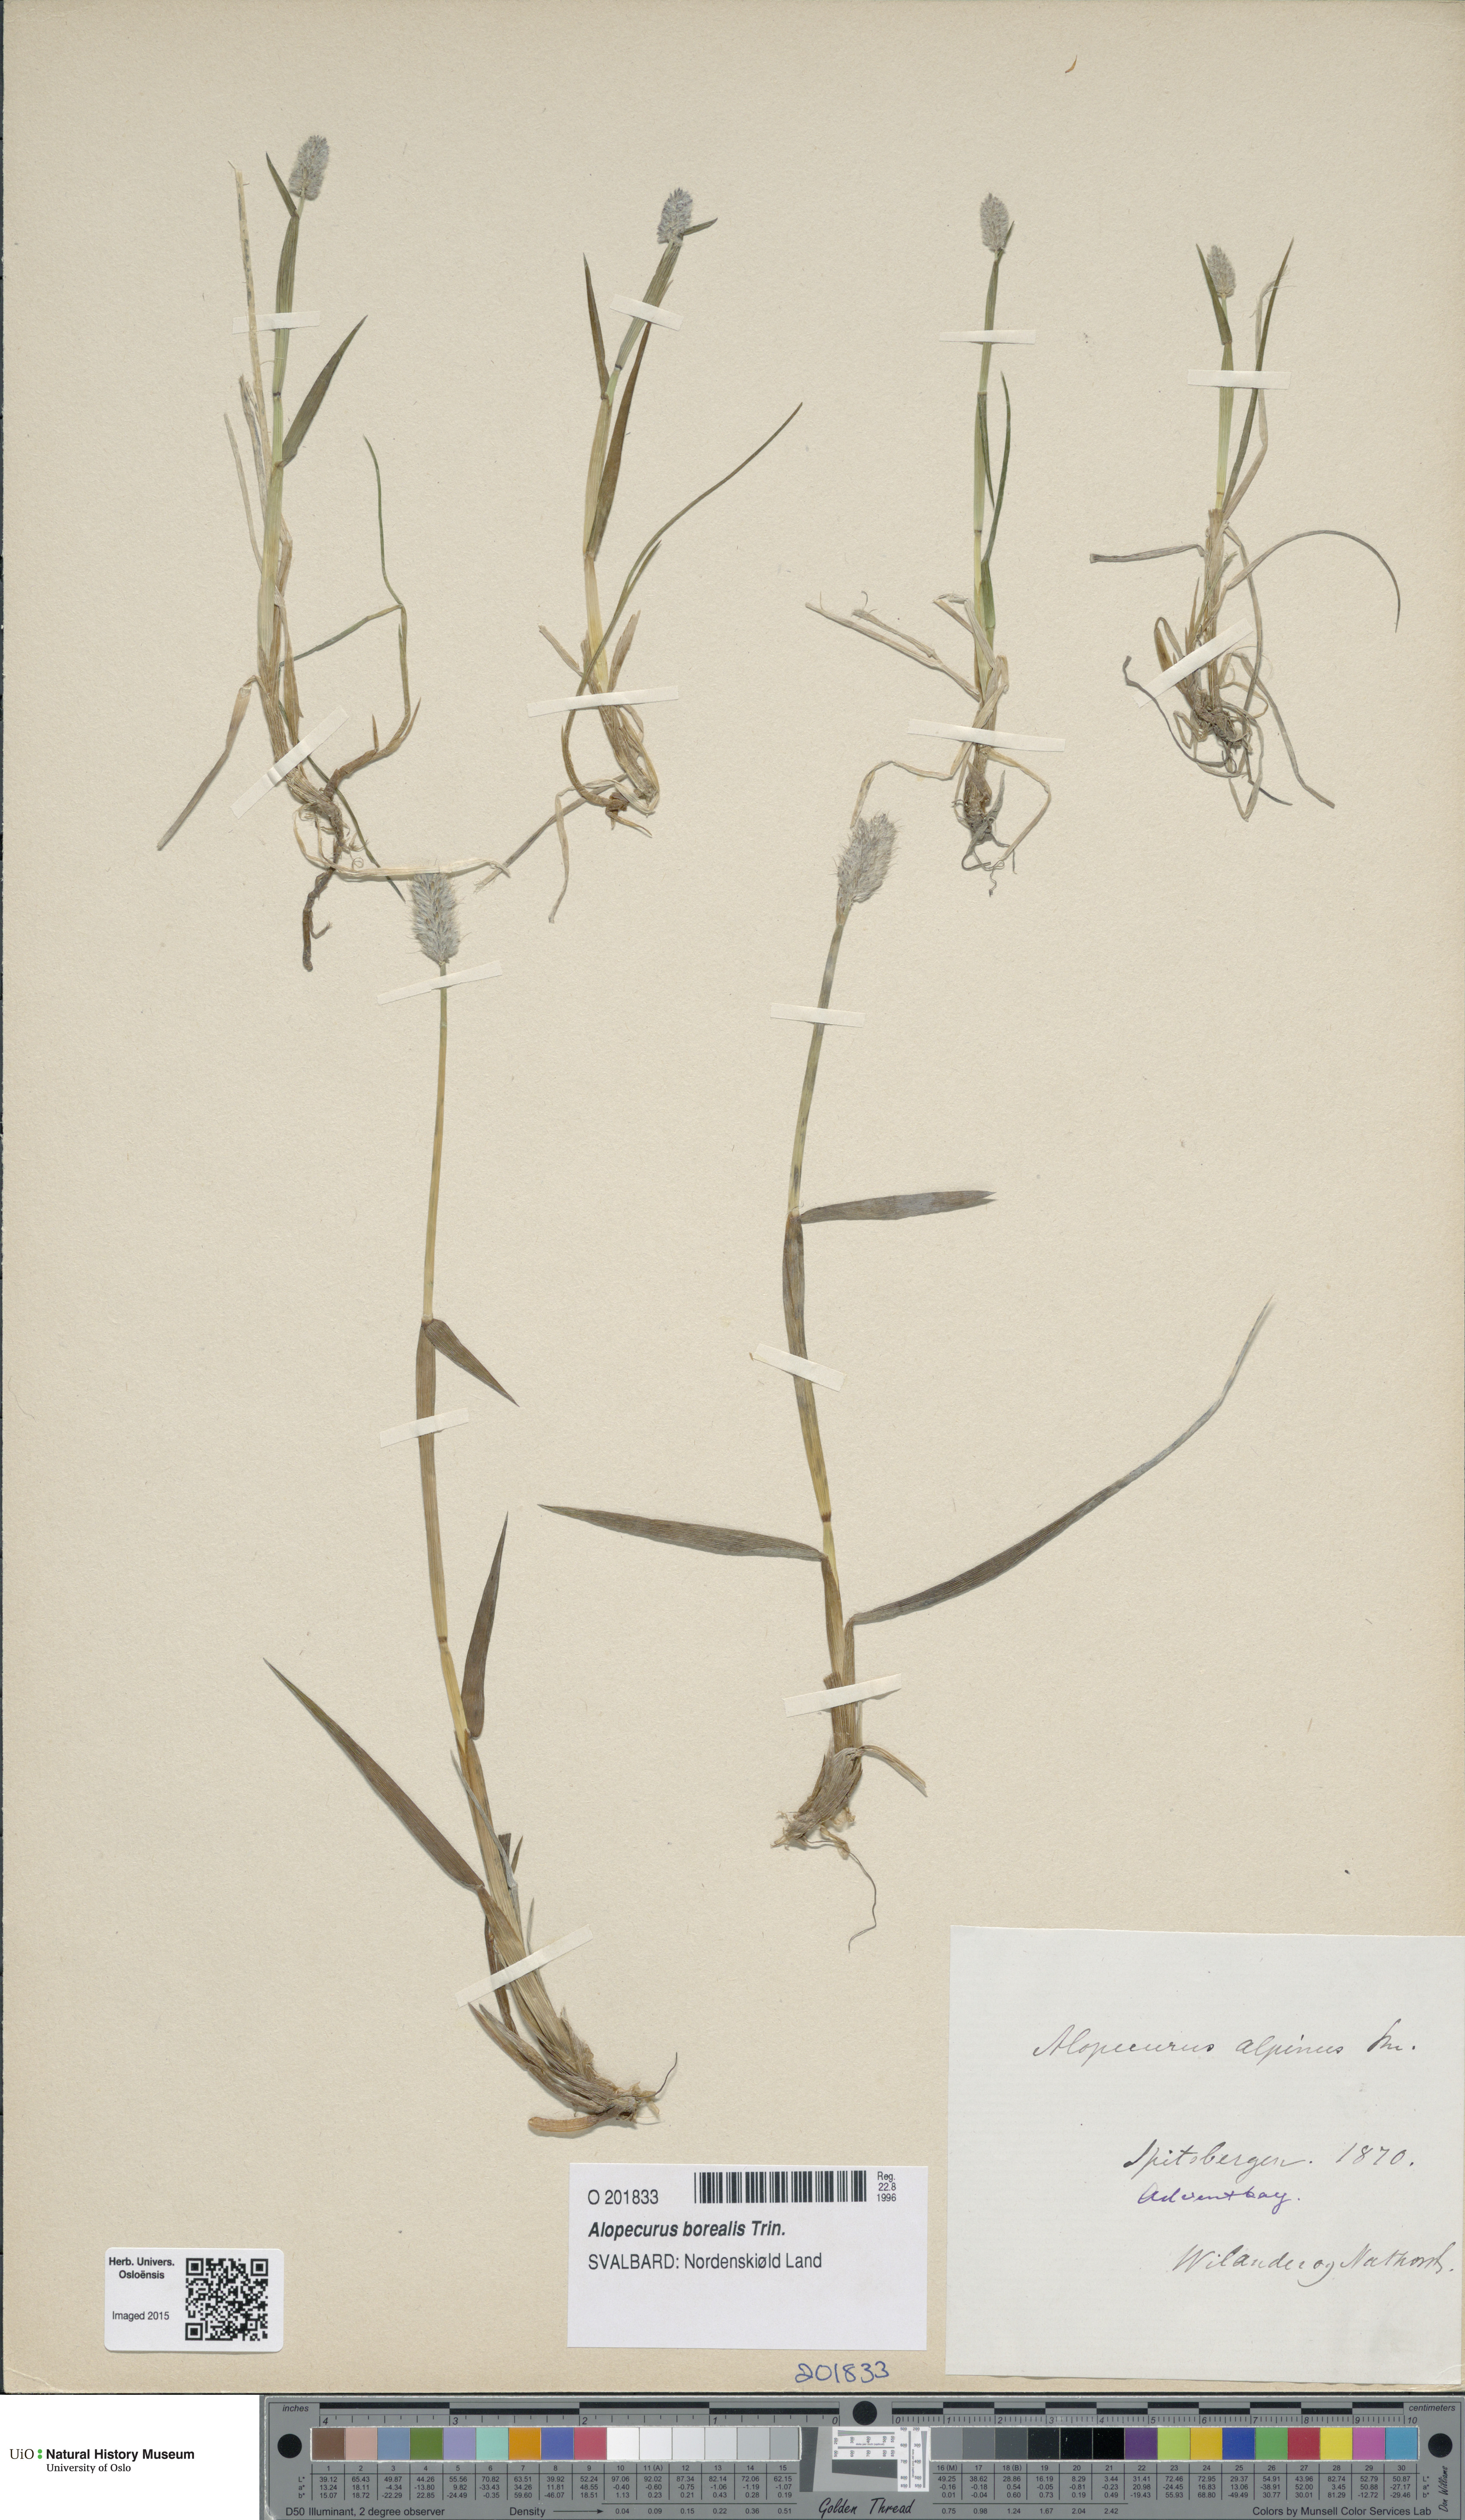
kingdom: Plantae
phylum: Tracheophyta
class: Liliopsida
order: Poales
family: Poaceae
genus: Alopecurus
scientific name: Alopecurus magellanicus
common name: Alpine foxtail
